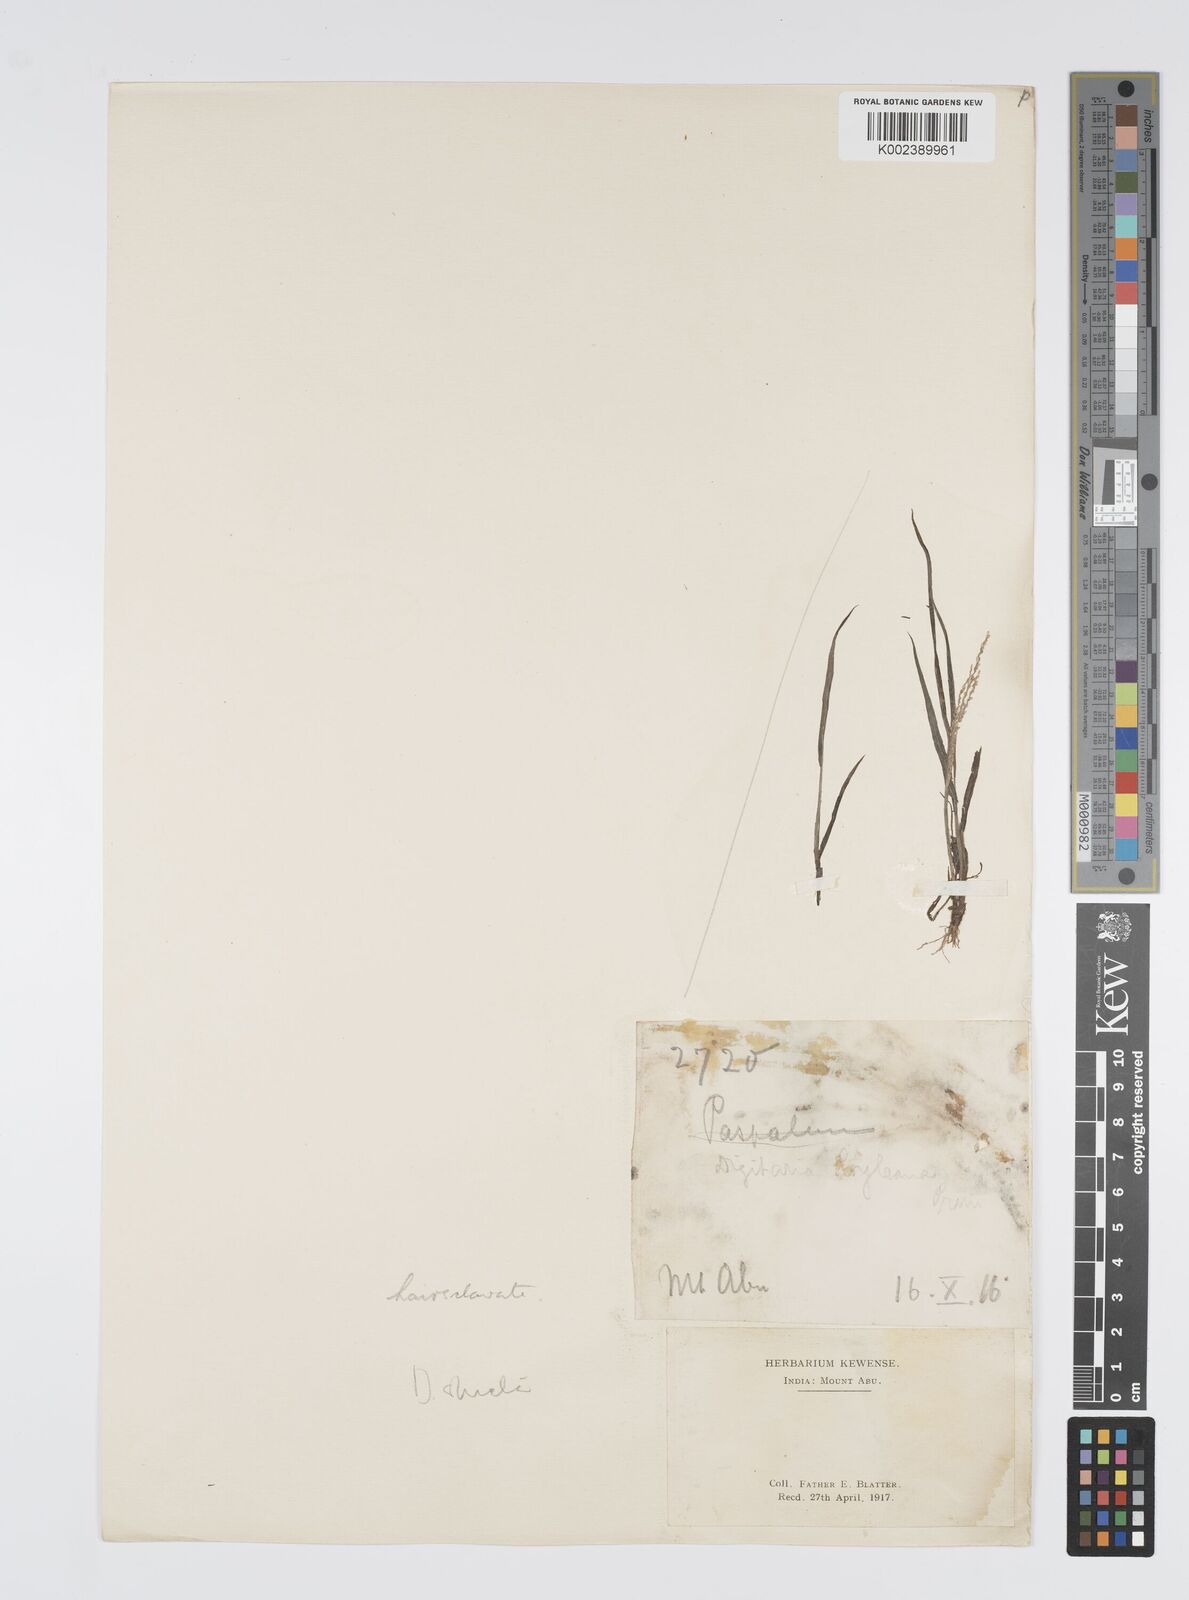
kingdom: Plantae
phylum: Tracheophyta
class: Liliopsida
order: Poales
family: Poaceae
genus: Digitaria
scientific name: Digitaria stricta
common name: Crabgrass
